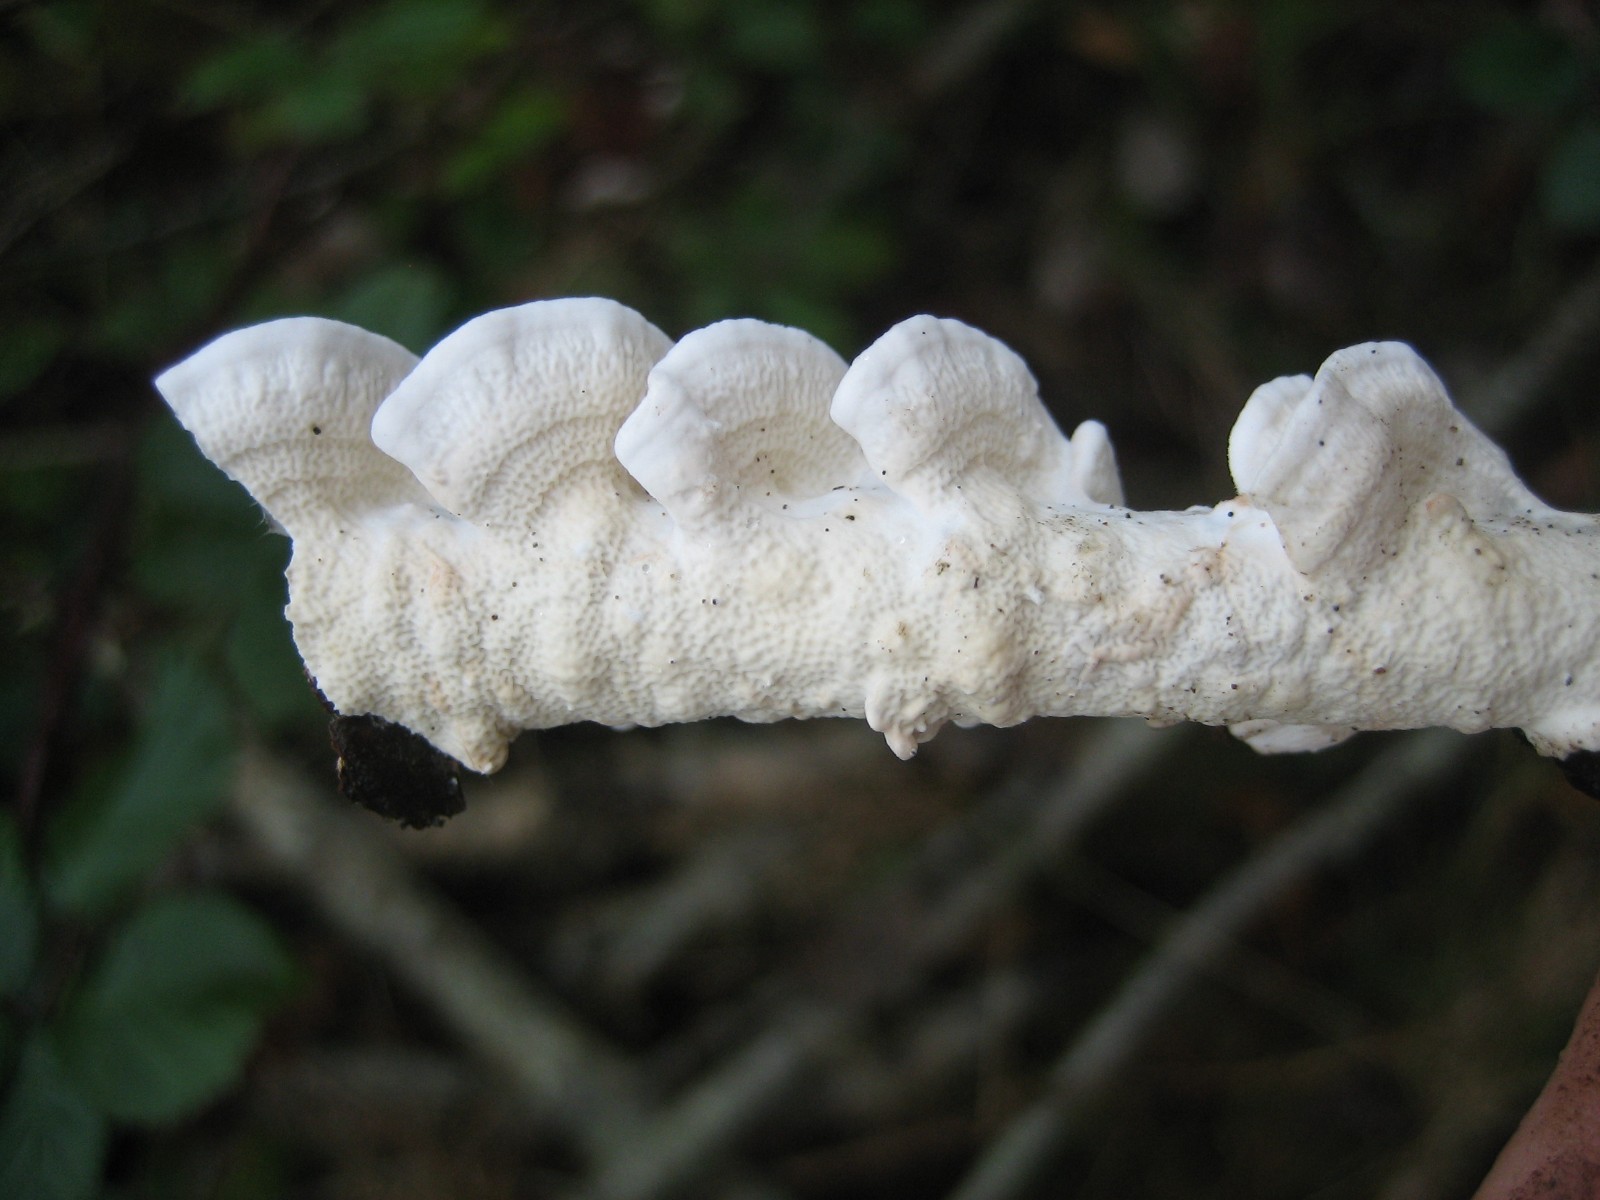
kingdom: Fungi
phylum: Basidiomycota
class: Agaricomycetes
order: Polyporales
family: Irpicaceae
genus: Byssomerulius
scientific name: Byssomerulius corium
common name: læder-åresvamp
